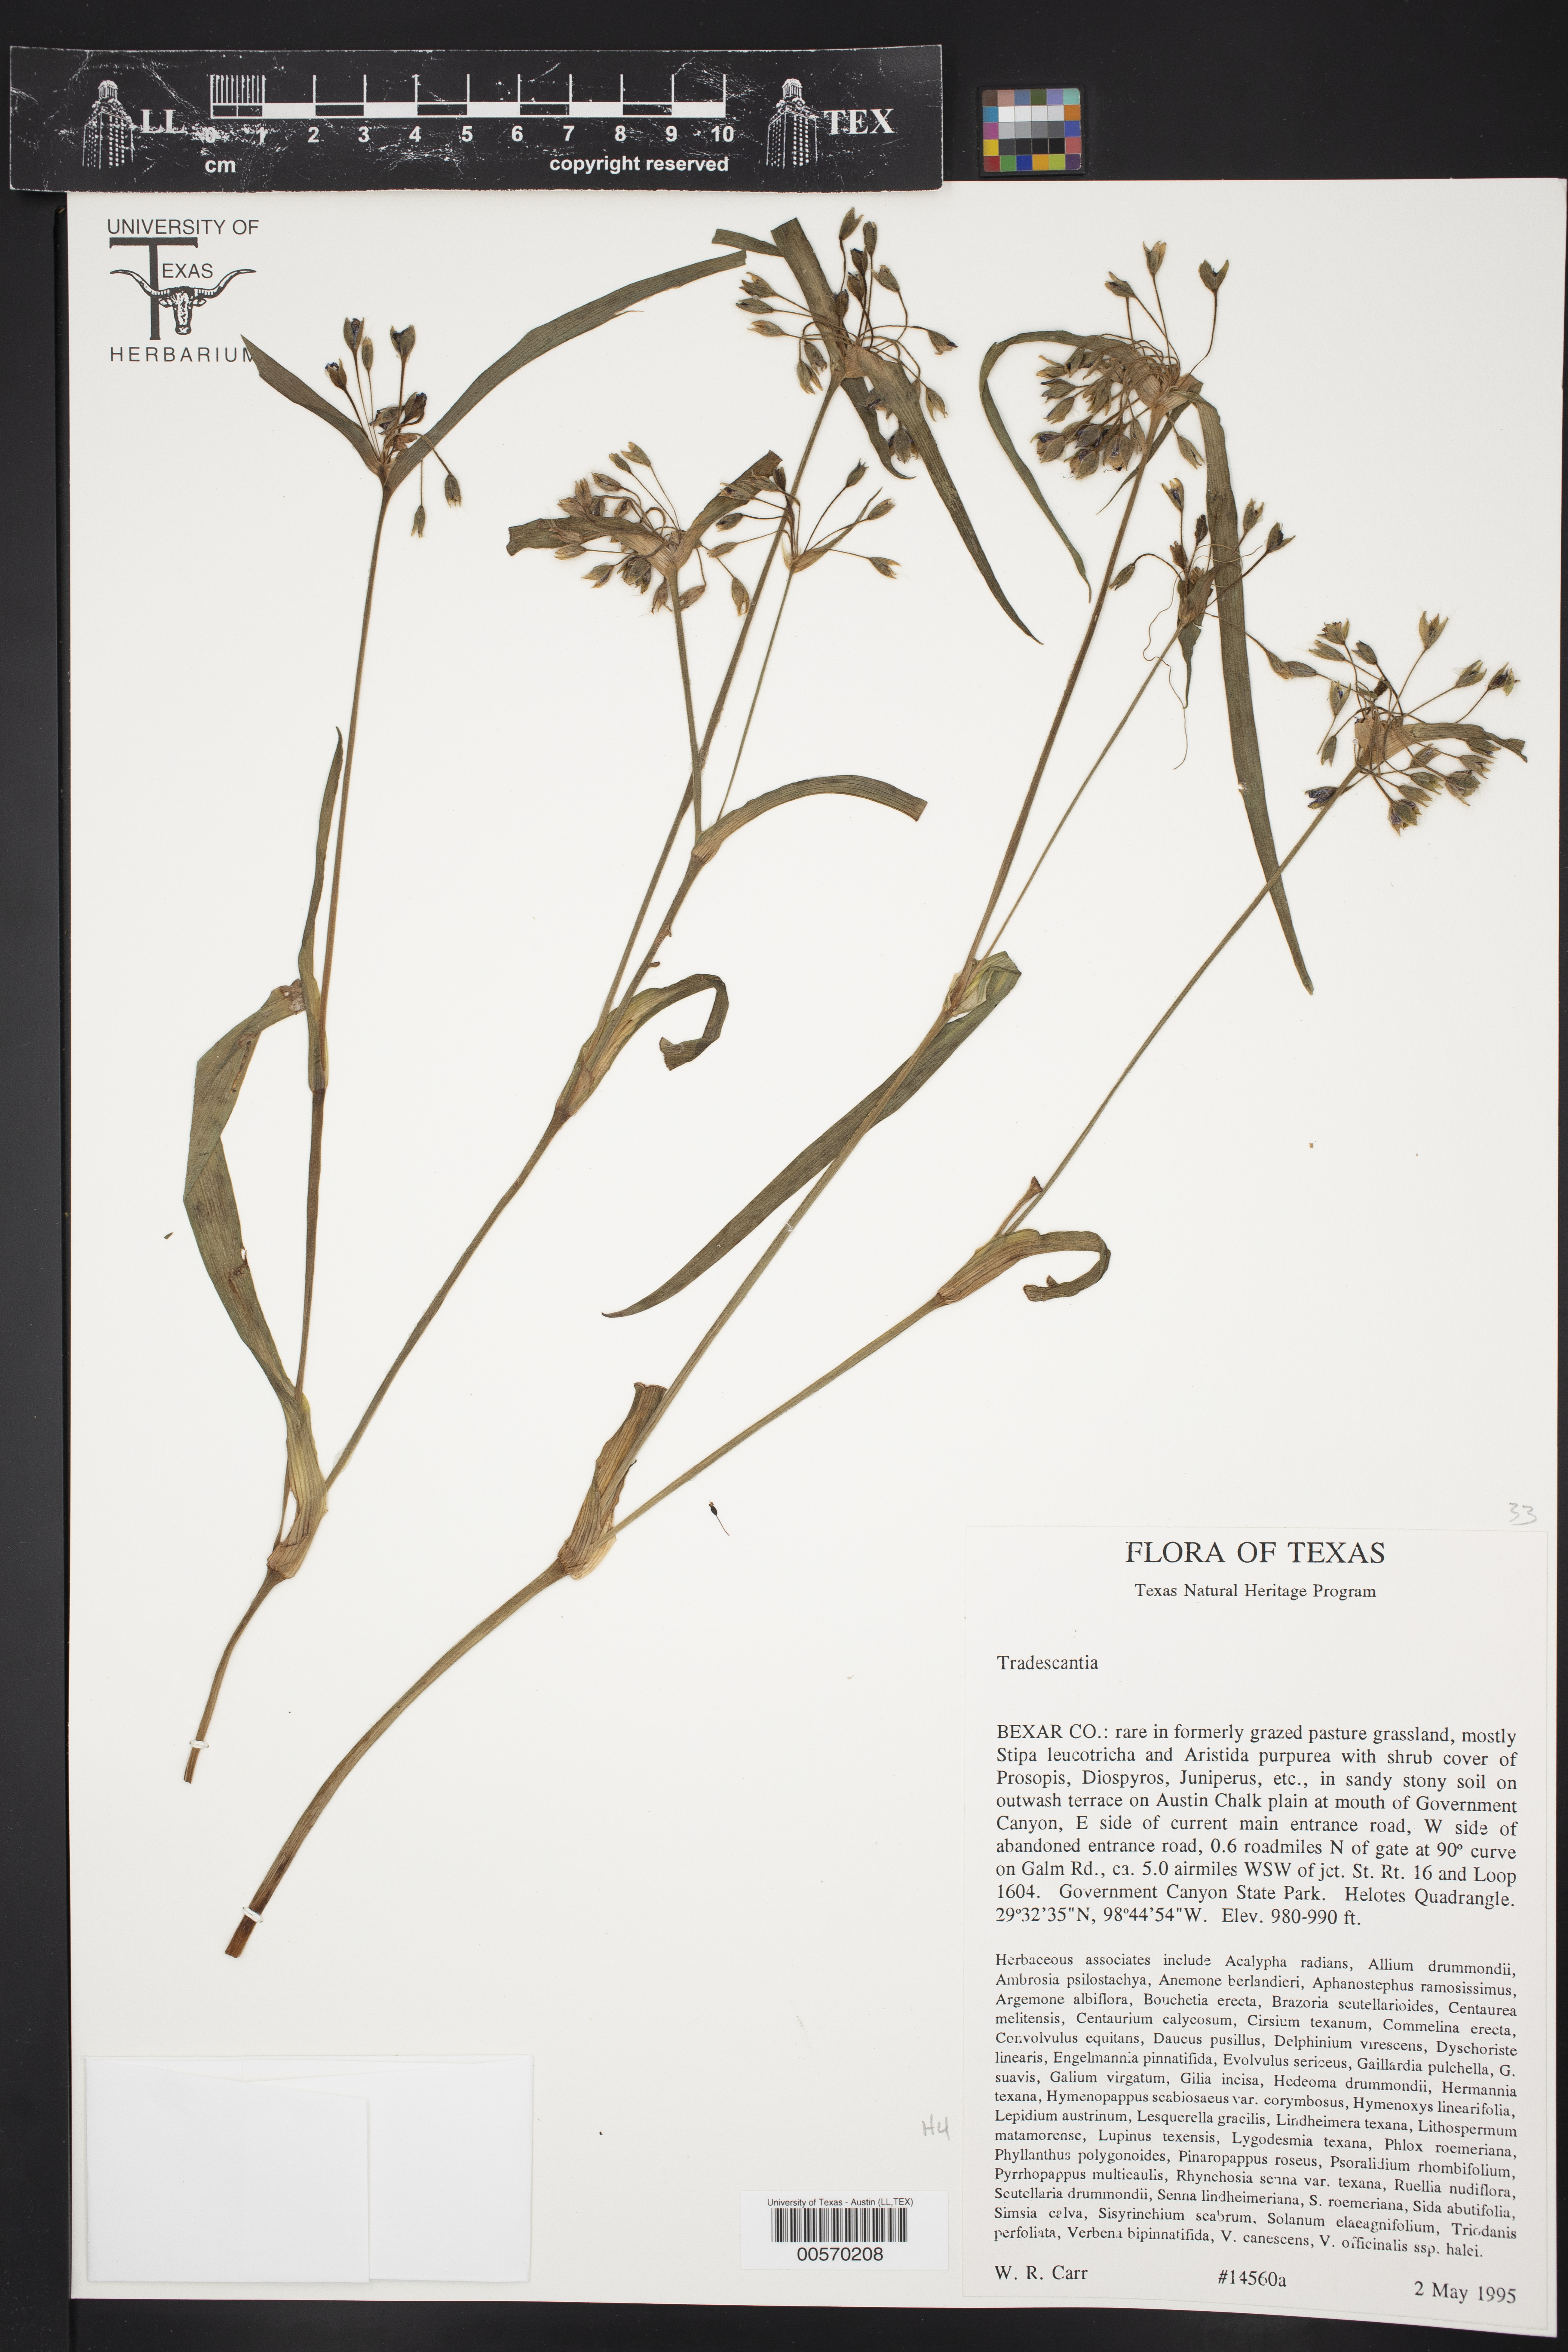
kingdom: Plantae
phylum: Tracheophyta
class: Liliopsida
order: Commelinales
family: Commelinaceae
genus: Tradescantia
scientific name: Tradescantia
